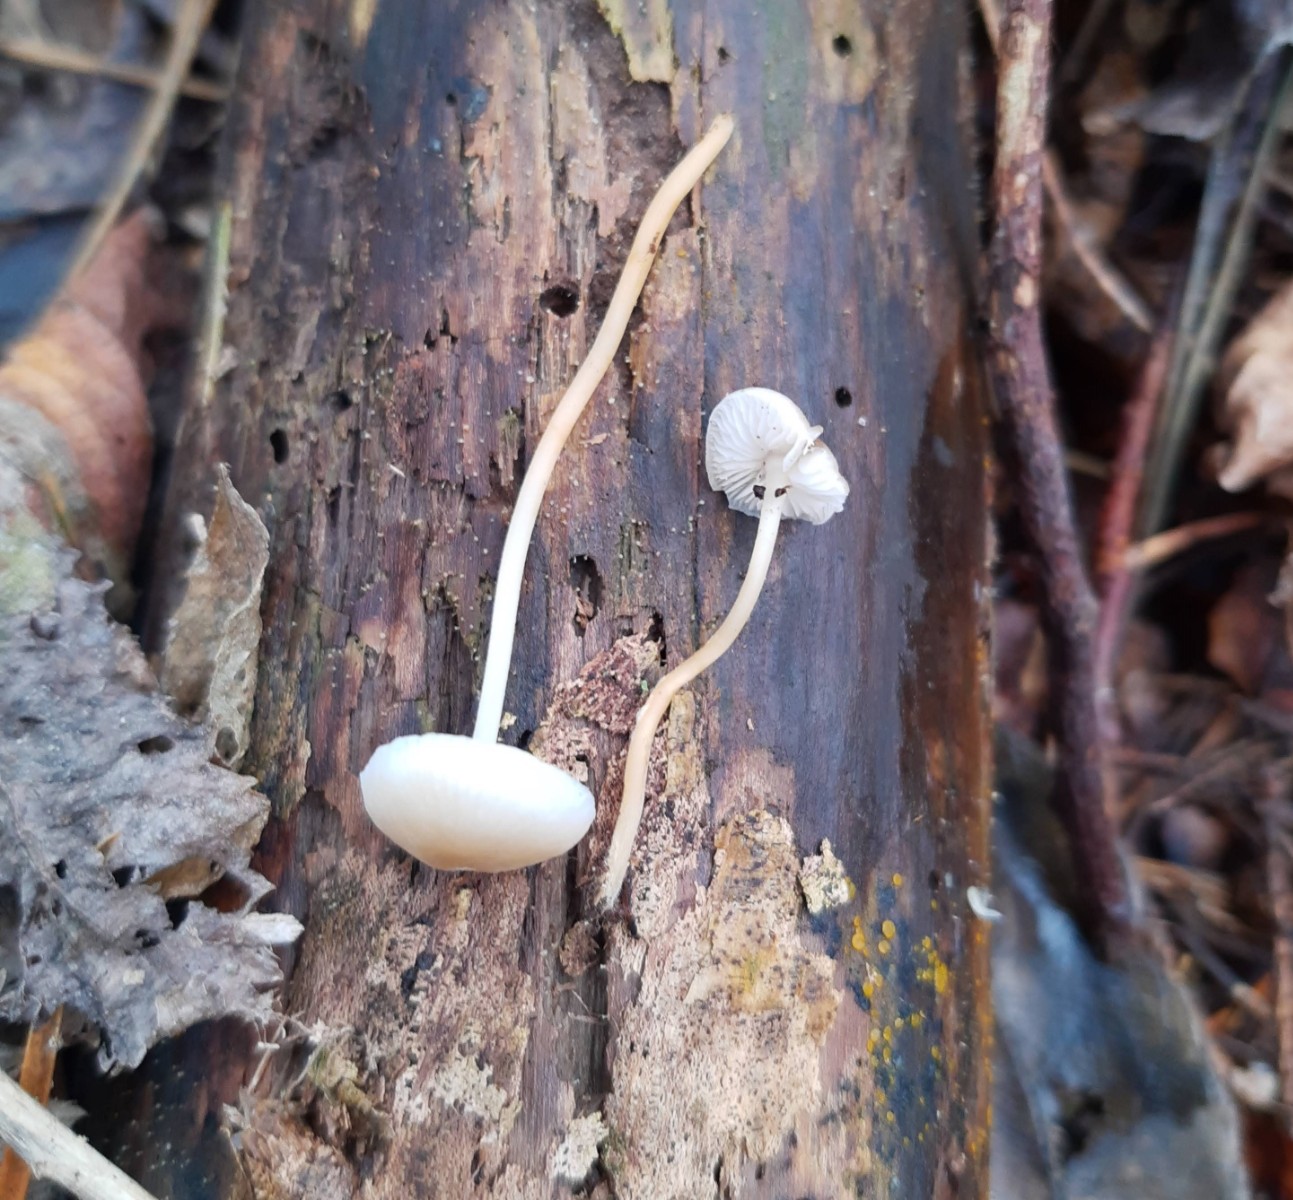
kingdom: Fungi
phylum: Basidiomycota
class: Agaricomycetes
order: Agaricales
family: Physalacriaceae
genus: Strobilurus
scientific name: Strobilurus esculentus
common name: gran-koglehat
